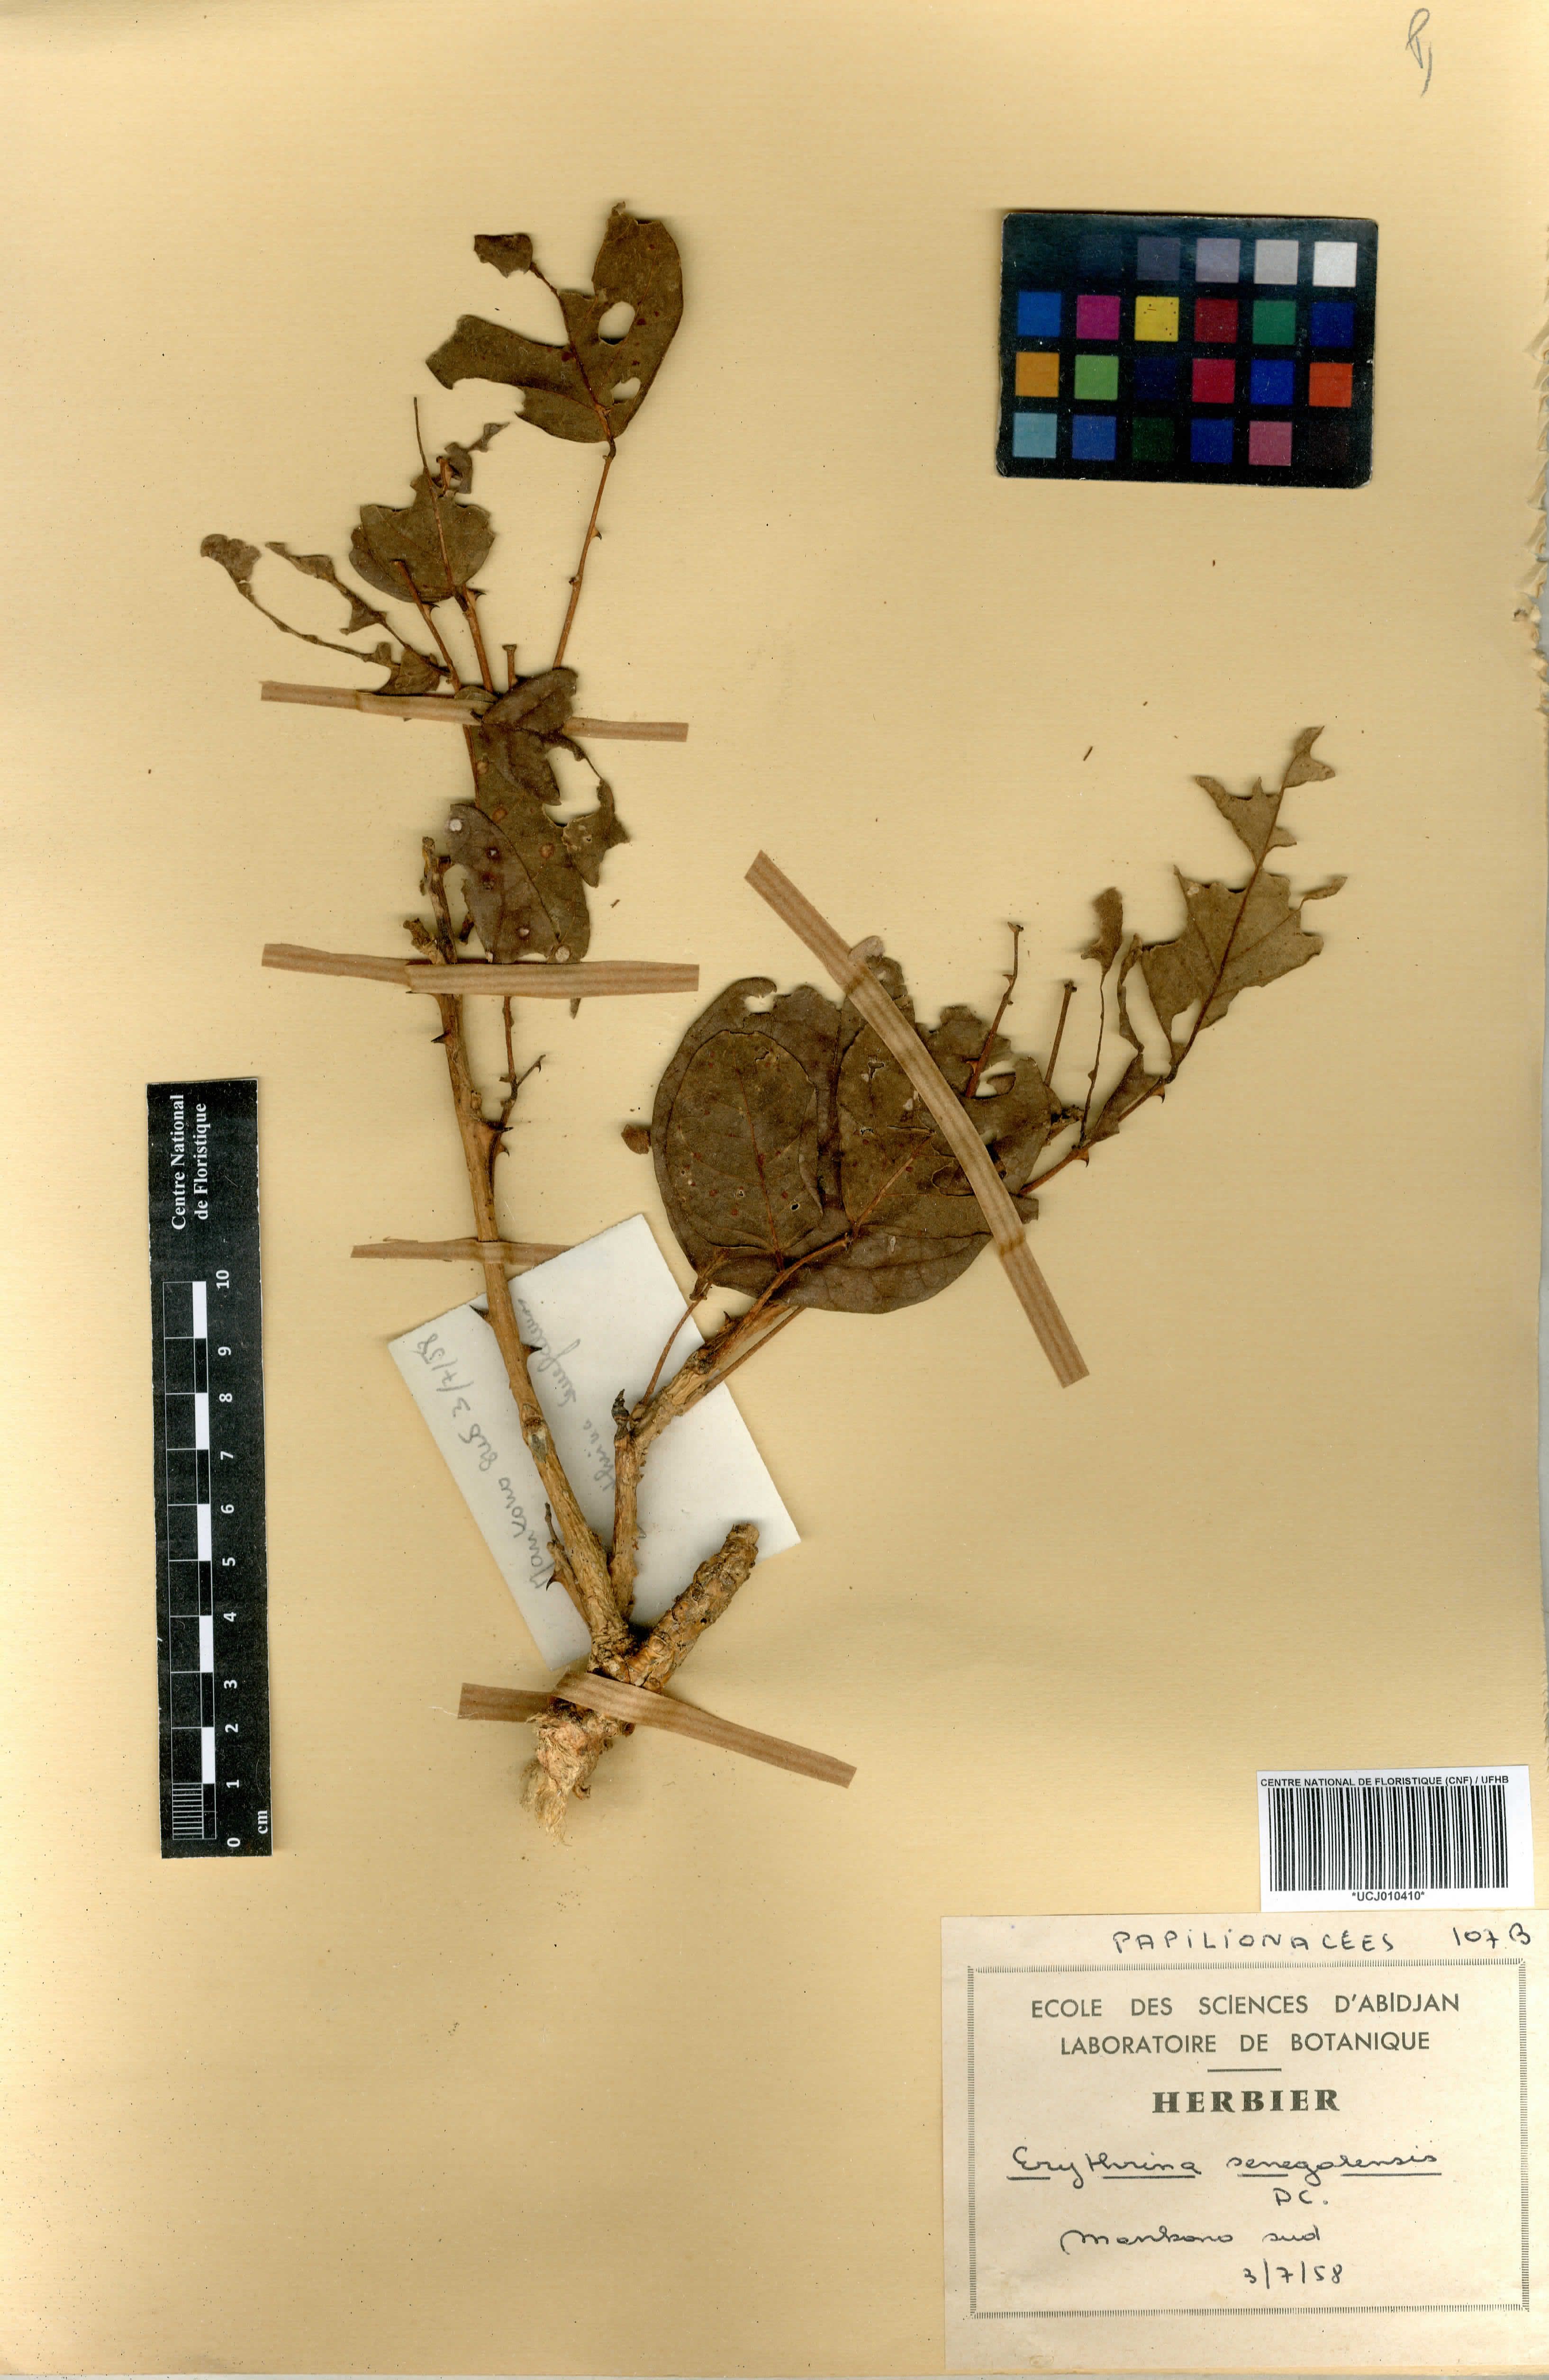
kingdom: Plantae
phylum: Tracheophyta
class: Magnoliopsida
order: Fabales
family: Fabaceae
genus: Erythrina
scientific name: Erythrina senegalensis
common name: Senegal coraltree
